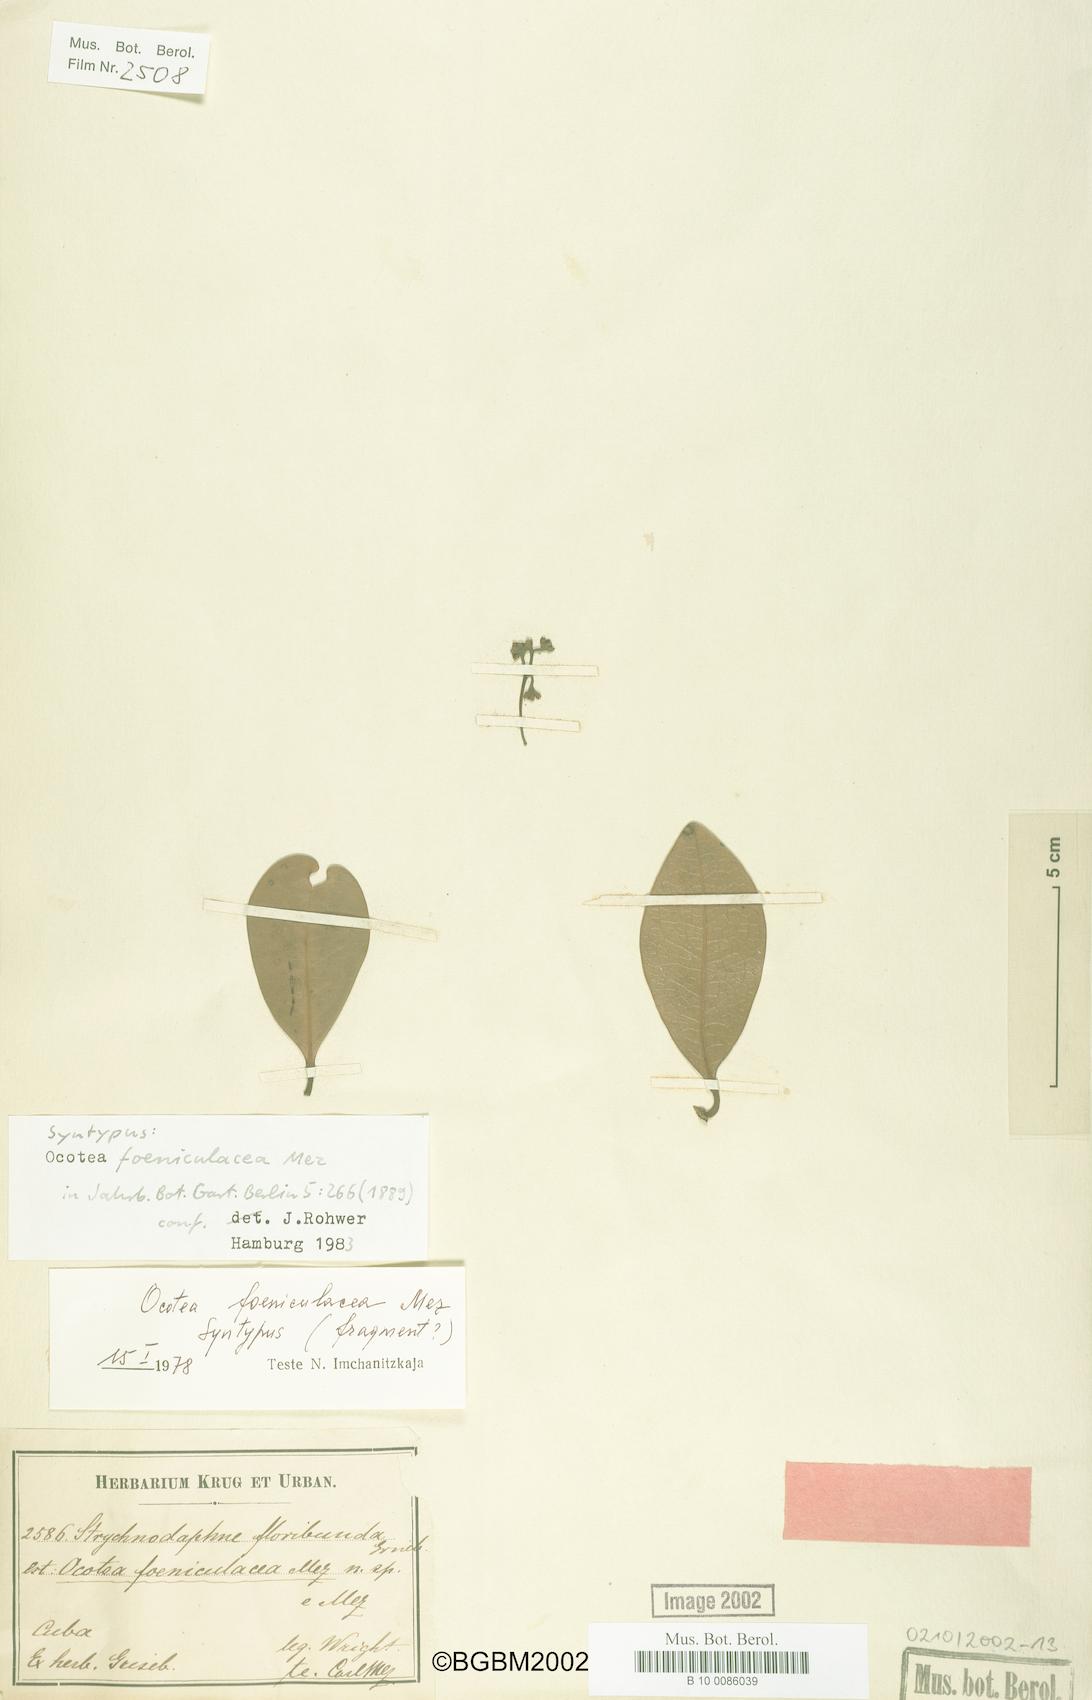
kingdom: Plantae
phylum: Tracheophyta
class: Magnoliopsida
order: Laurales
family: Lauraceae
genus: Ocotea
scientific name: Ocotea foeniculacea
